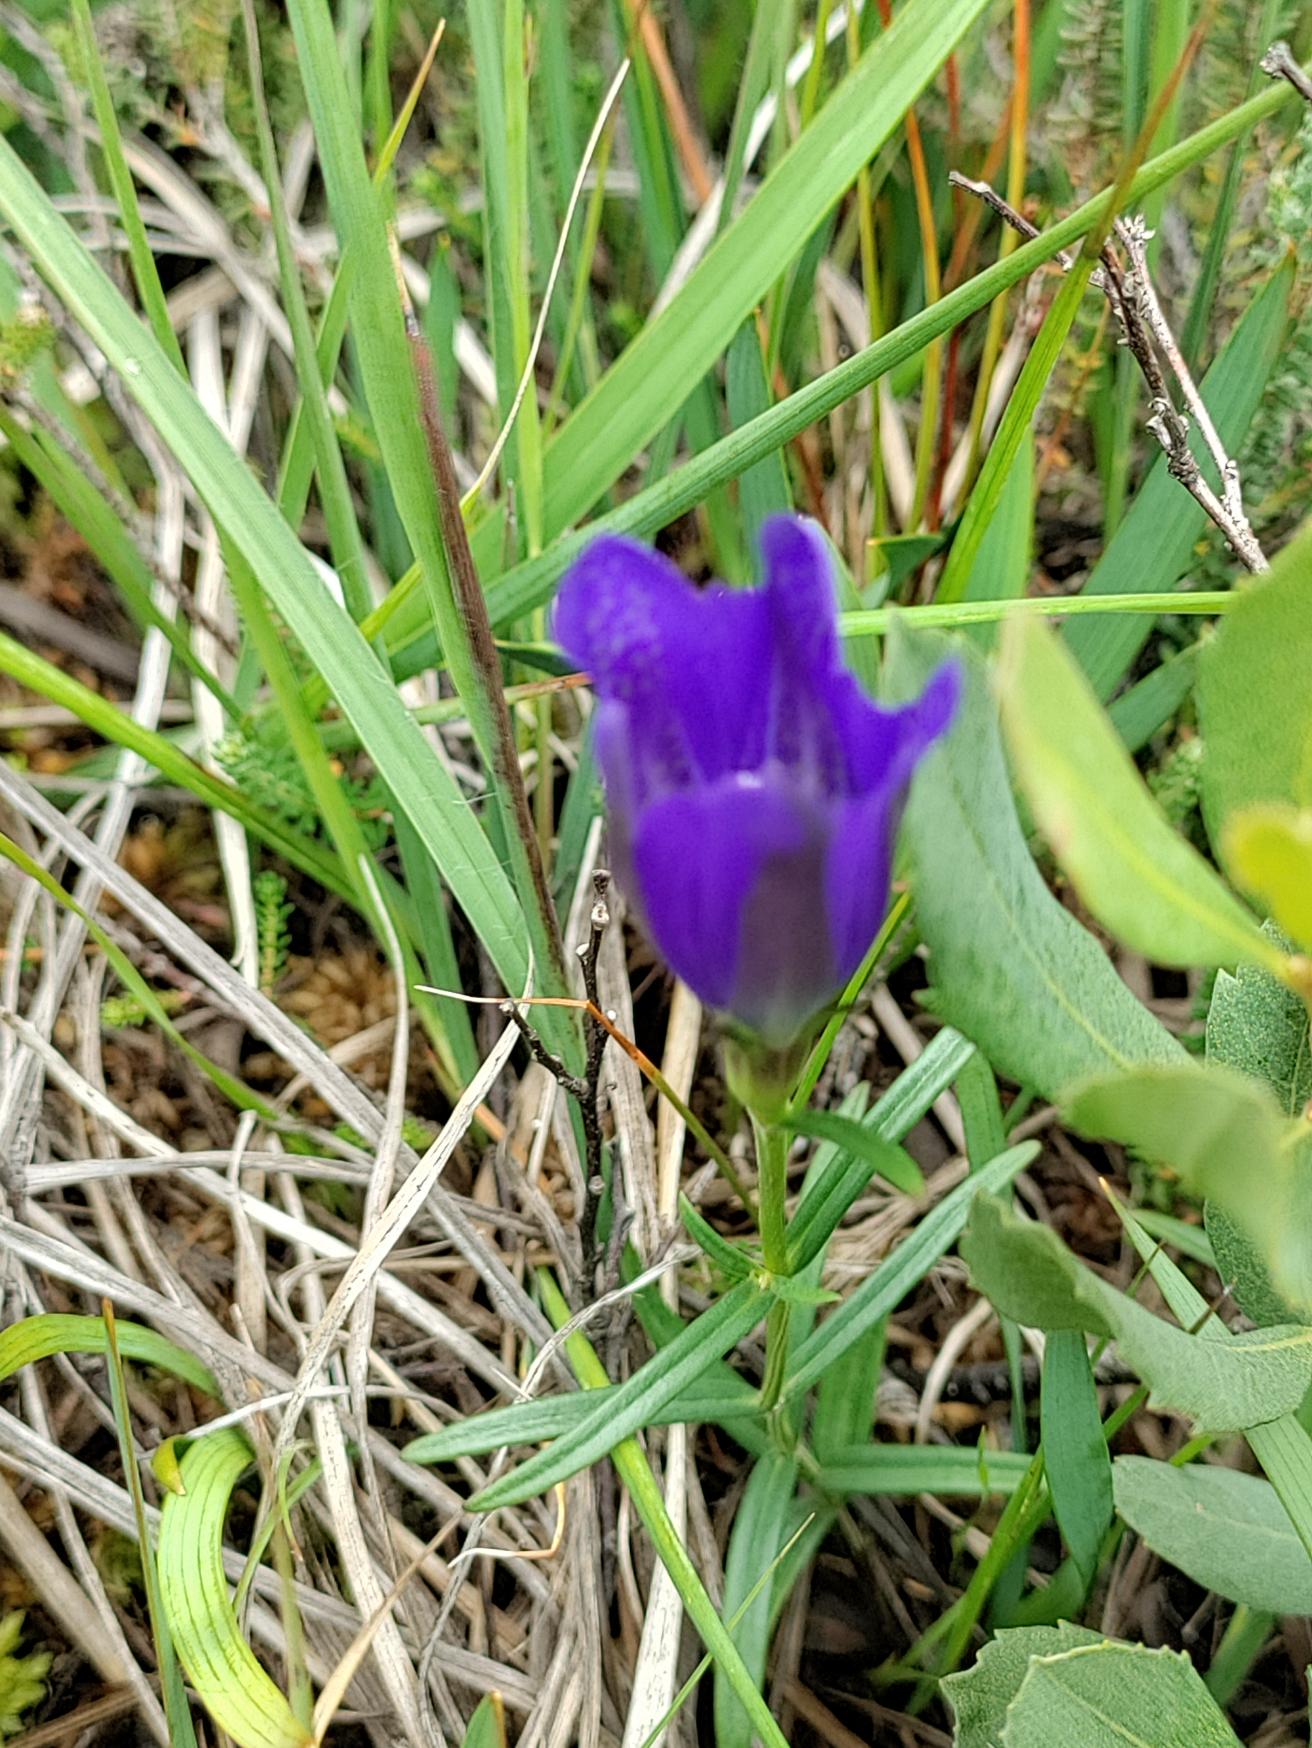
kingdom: Plantae
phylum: Tracheophyta
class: Magnoliopsida
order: Gentianales
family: Gentianaceae
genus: Gentiana
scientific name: Gentiana pneumonanthe
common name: Klokke-ensian
